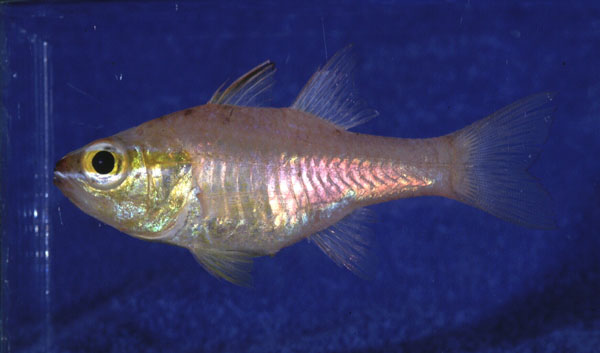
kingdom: Animalia
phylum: Chordata
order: Perciformes
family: Apogonidae
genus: Ostorhinchus
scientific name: Ostorhinchus apogonoides
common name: Goldbelly cardinalfish
